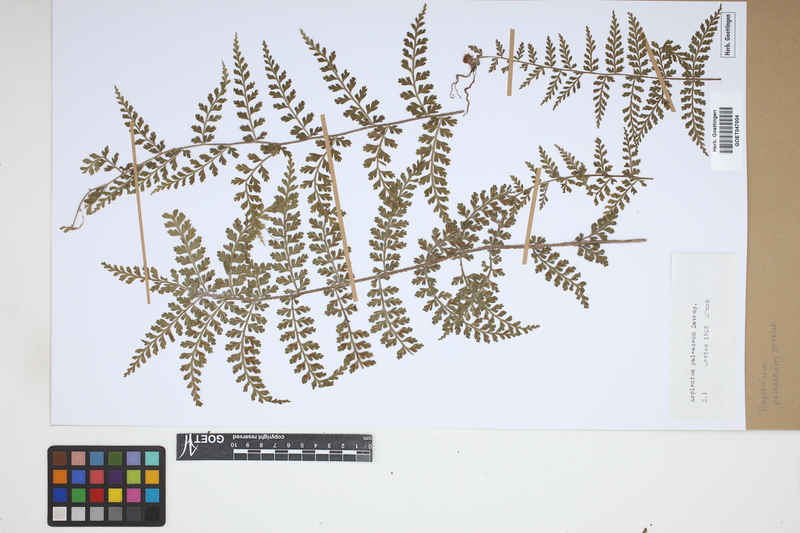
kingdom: Plantae
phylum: Tracheophyta
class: Polypodiopsida
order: Polypodiales
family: Aspleniaceae
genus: Asplenium
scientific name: Asplenium paleaceum
